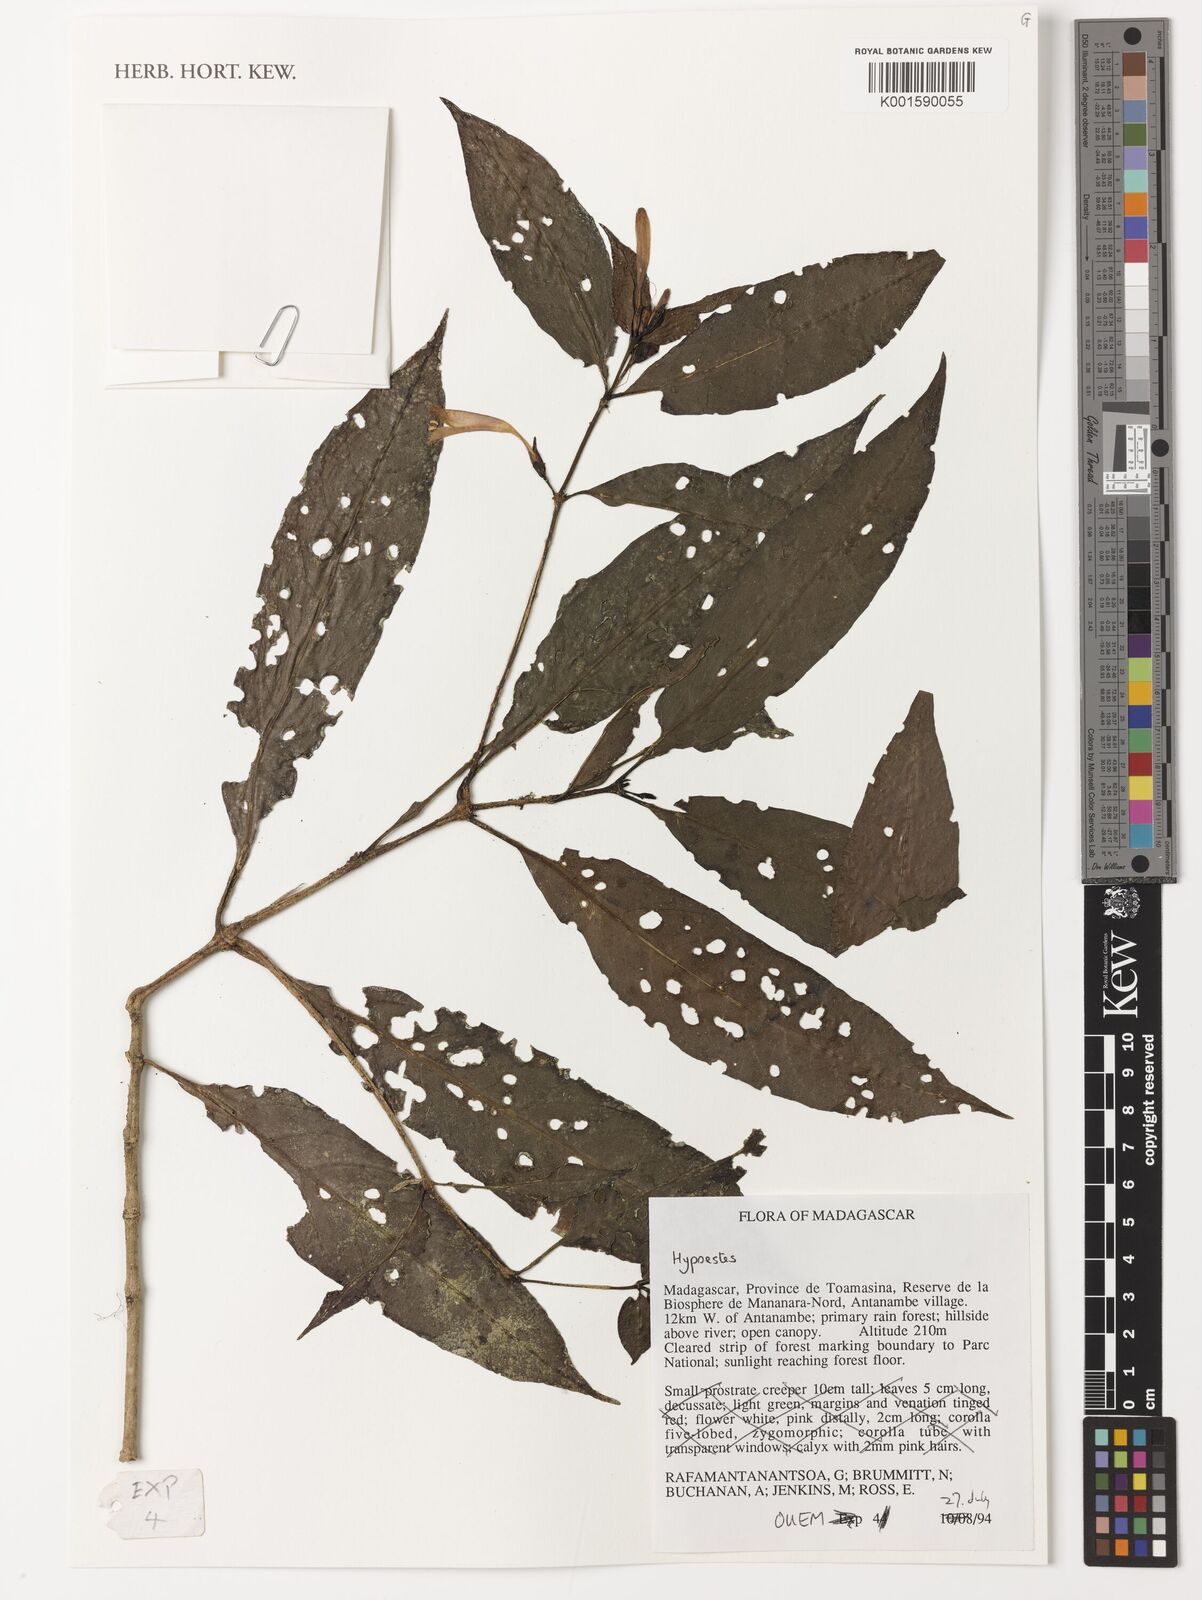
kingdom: Plantae
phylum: Tracheophyta
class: Magnoliopsida
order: Lamiales
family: Acanthaceae
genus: Hypoestes
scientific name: Hypoestes
